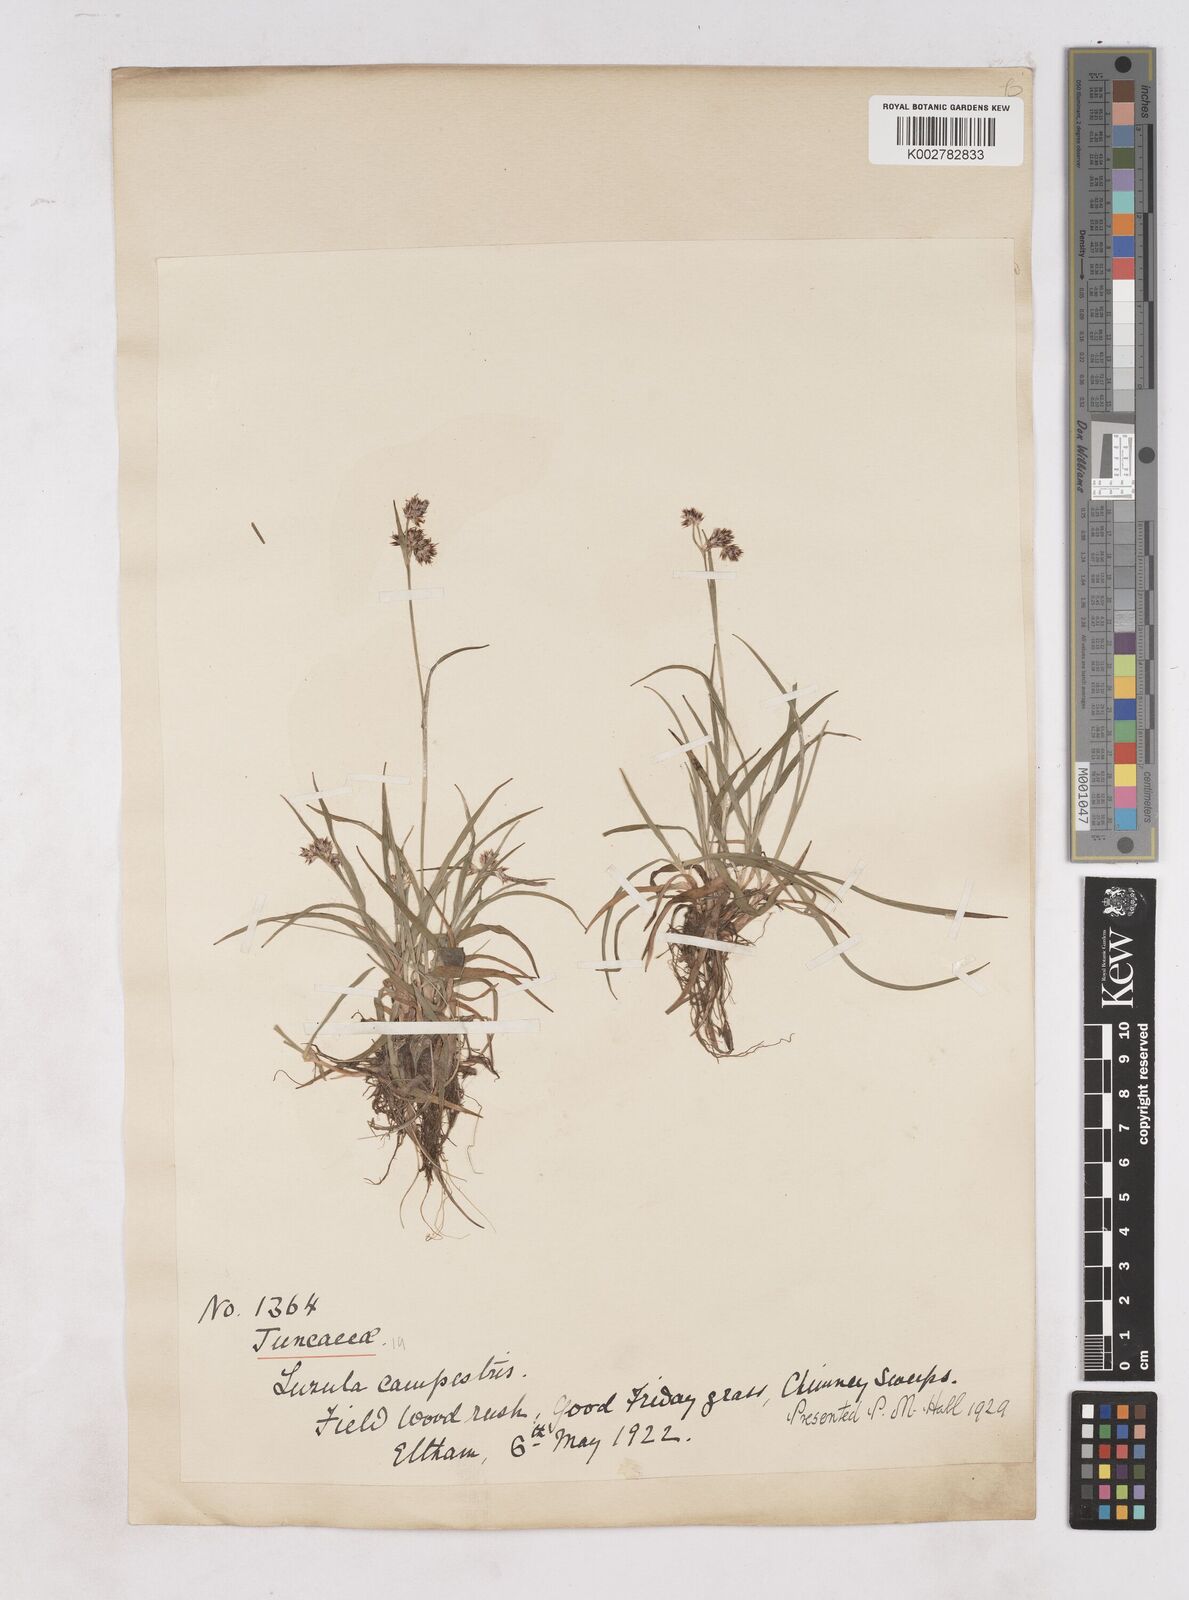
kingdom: Plantae
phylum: Tracheophyta
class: Liliopsida
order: Poales
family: Juncaceae
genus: Luzula
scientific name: Luzula campestris
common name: Field wood-rush
